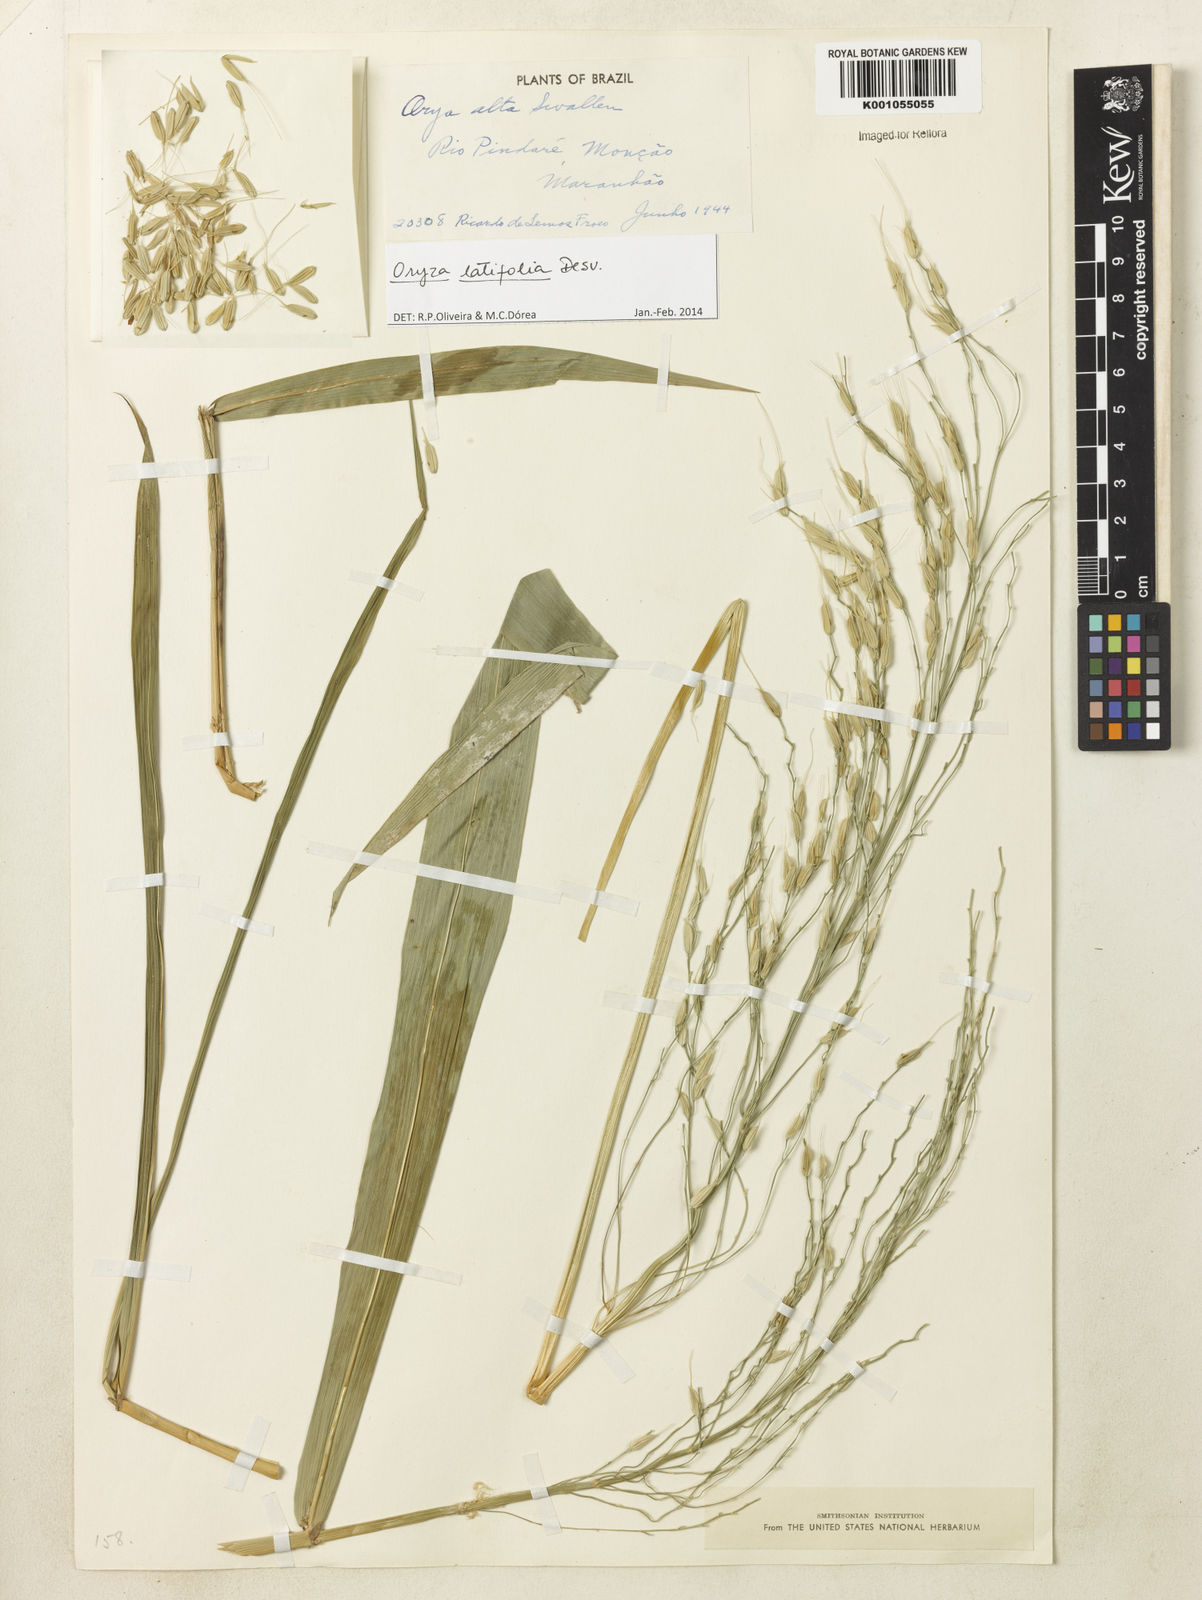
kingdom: Plantae
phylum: Tracheophyta
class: Liliopsida
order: Poales
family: Poaceae
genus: Oryza
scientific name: Oryza latifolia
